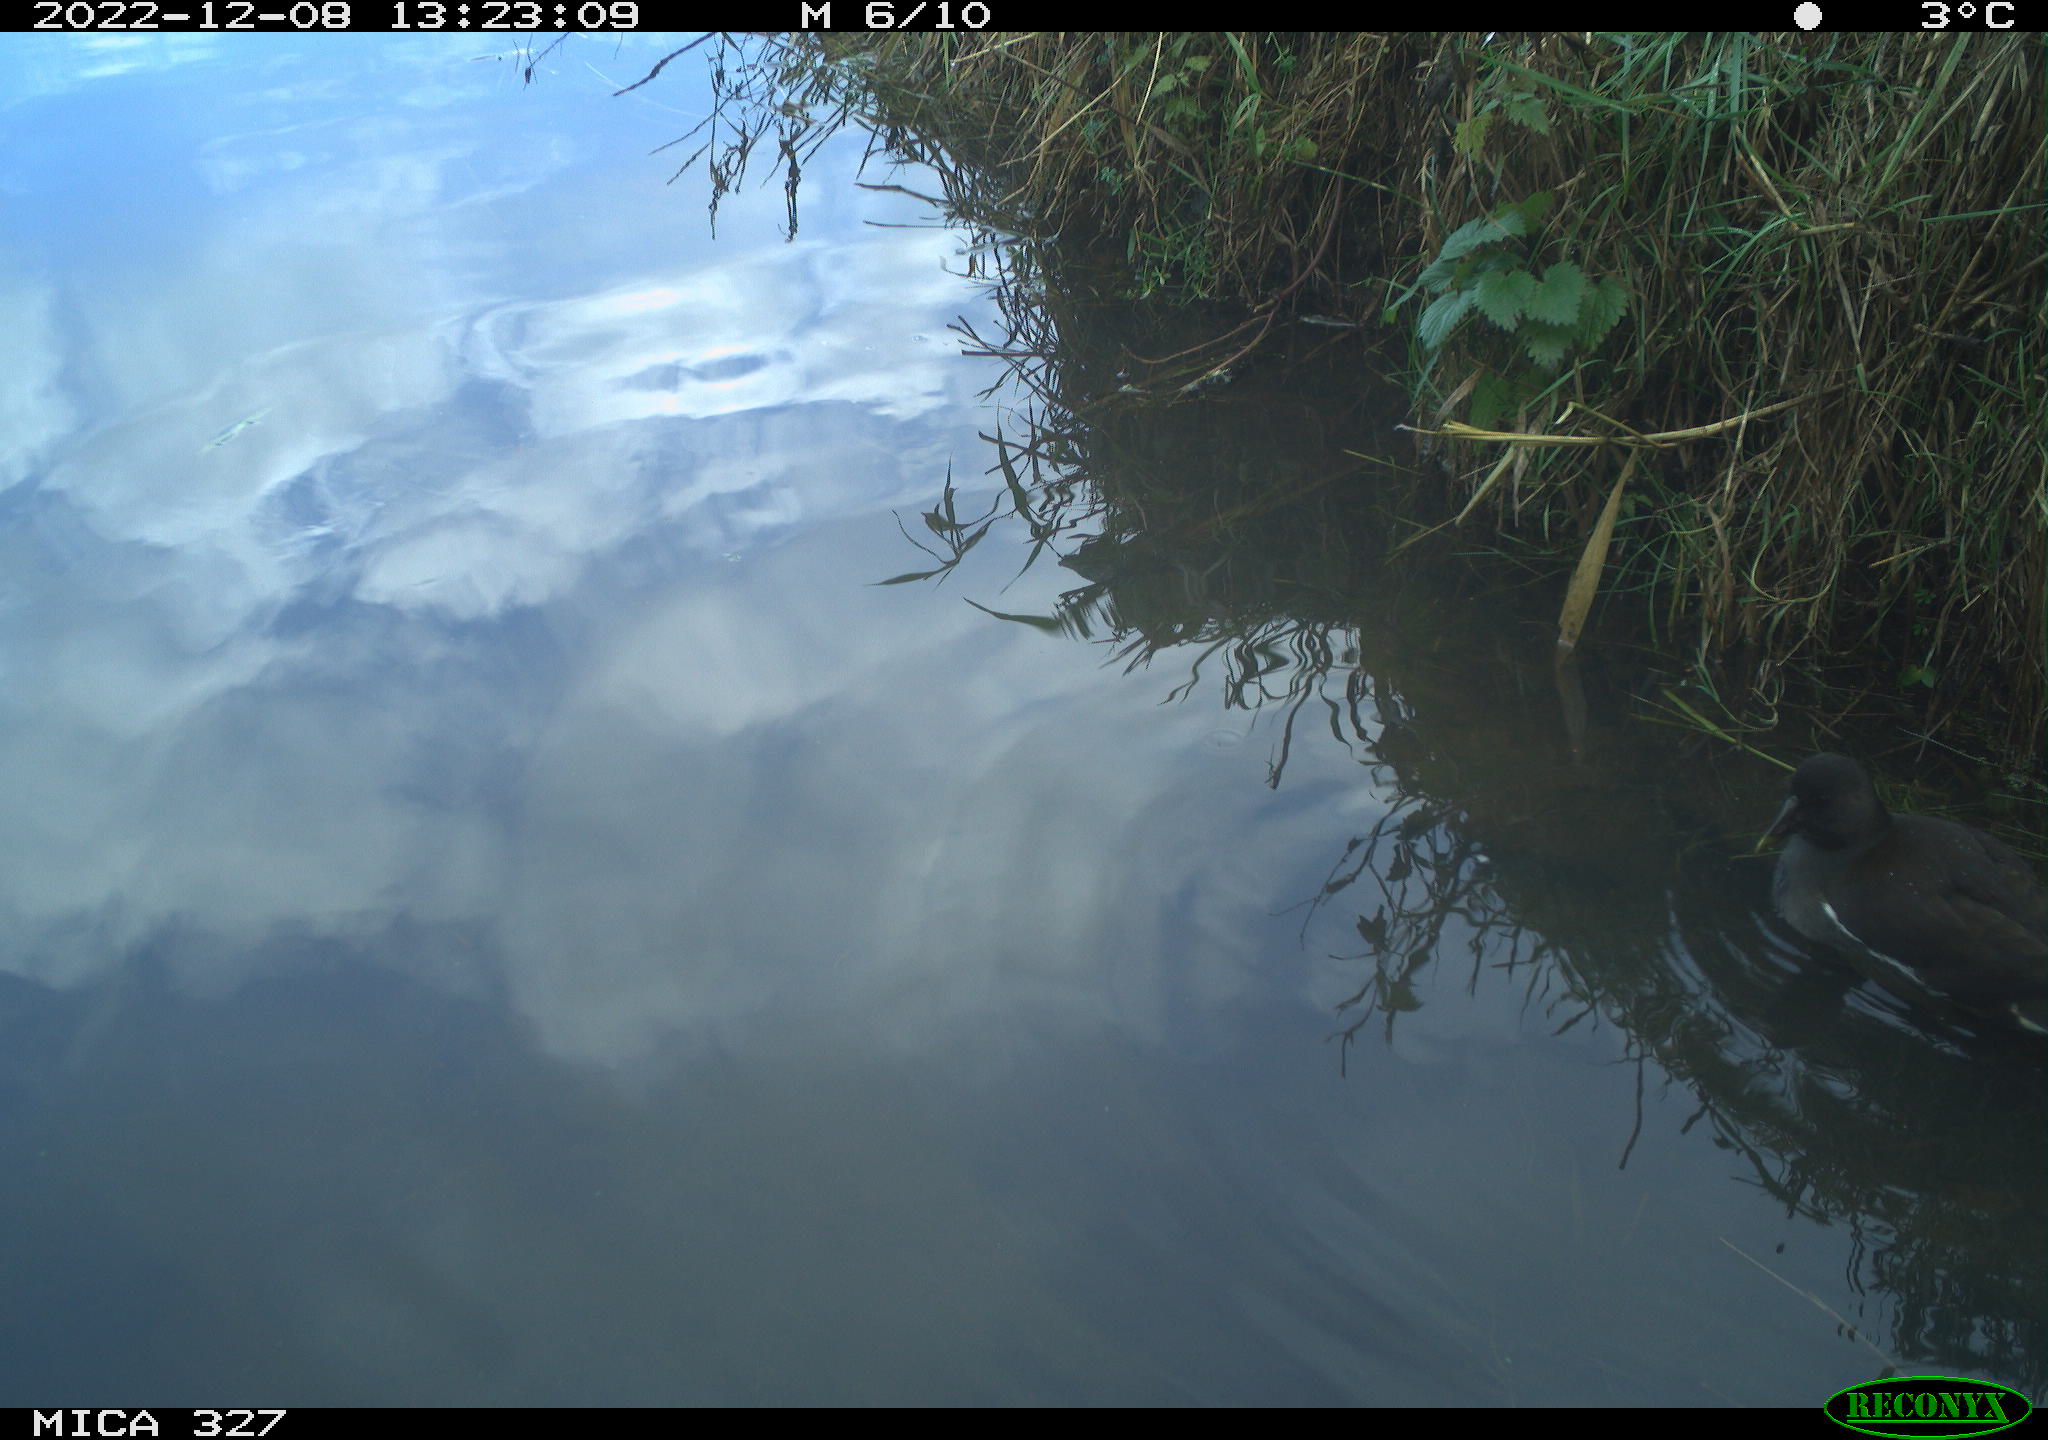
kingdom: Animalia
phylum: Chordata
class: Aves
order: Gruiformes
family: Rallidae
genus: Gallinula
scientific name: Gallinula chloropus
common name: Common moorhen
